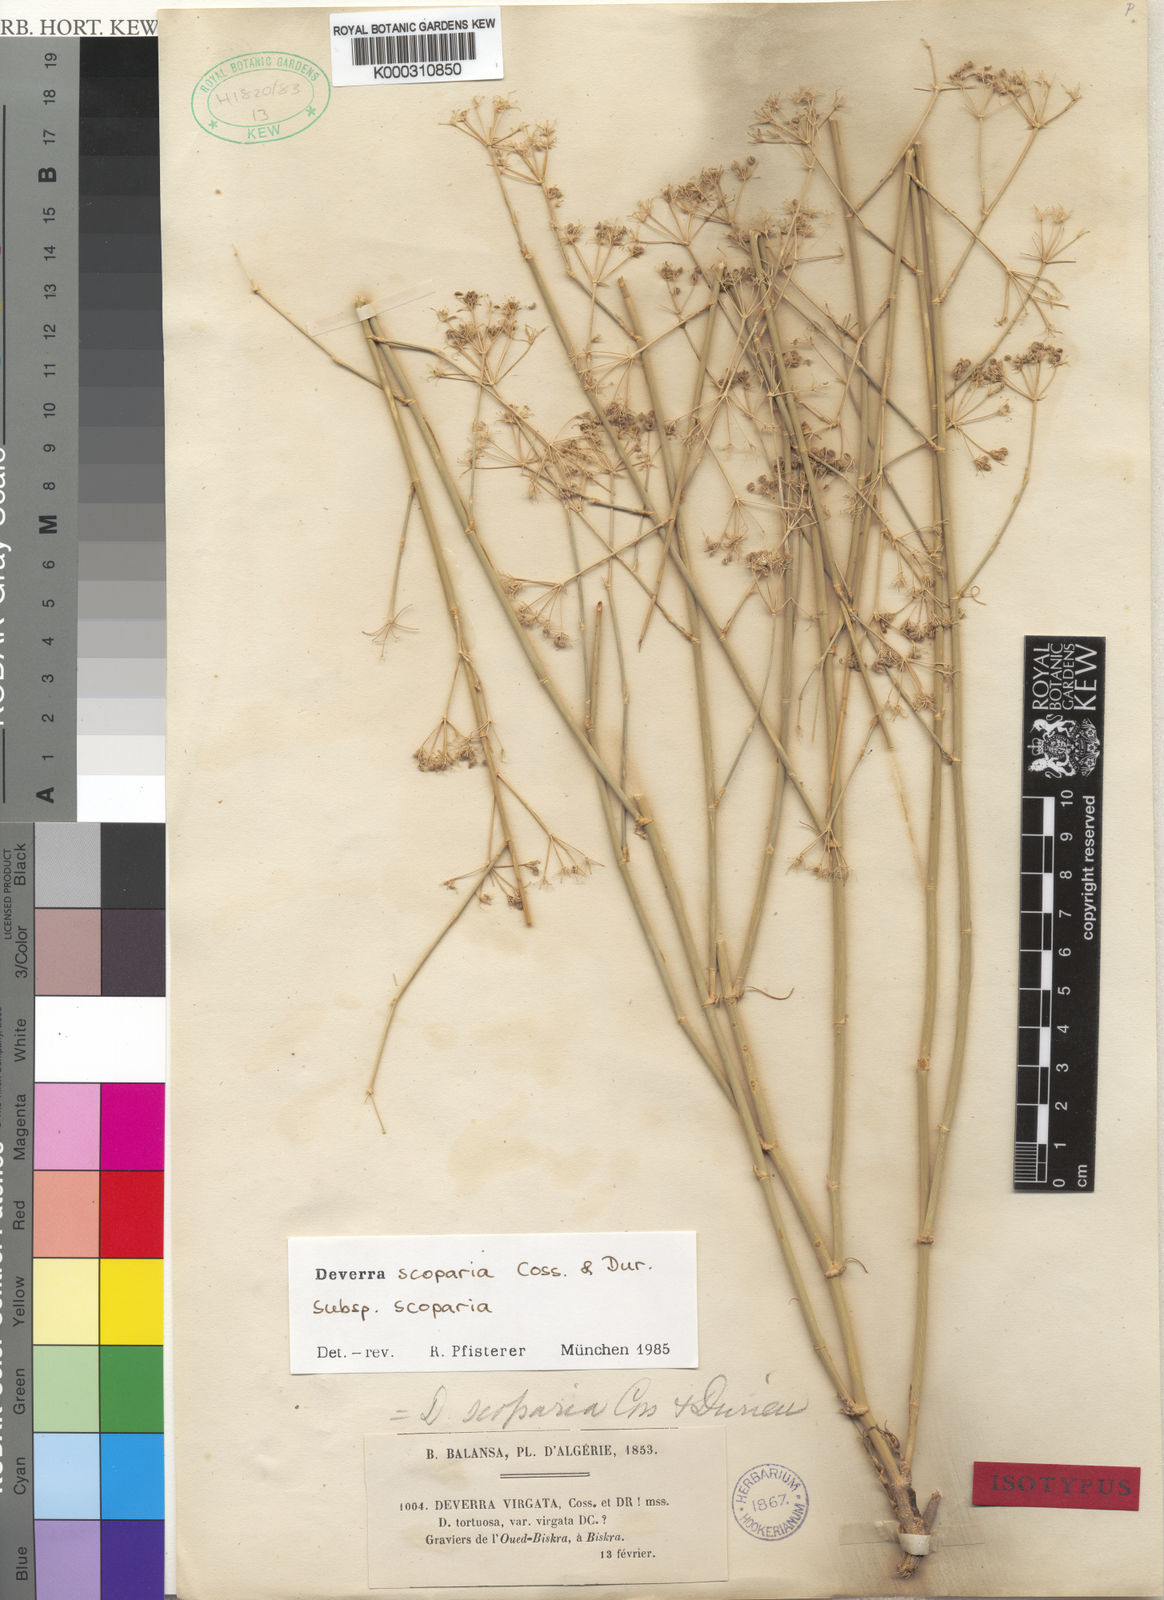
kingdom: Plantae
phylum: Tracheophyta
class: Magnoliopsida
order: Apiales
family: Apiaceae
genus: Deverra
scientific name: Deverra
